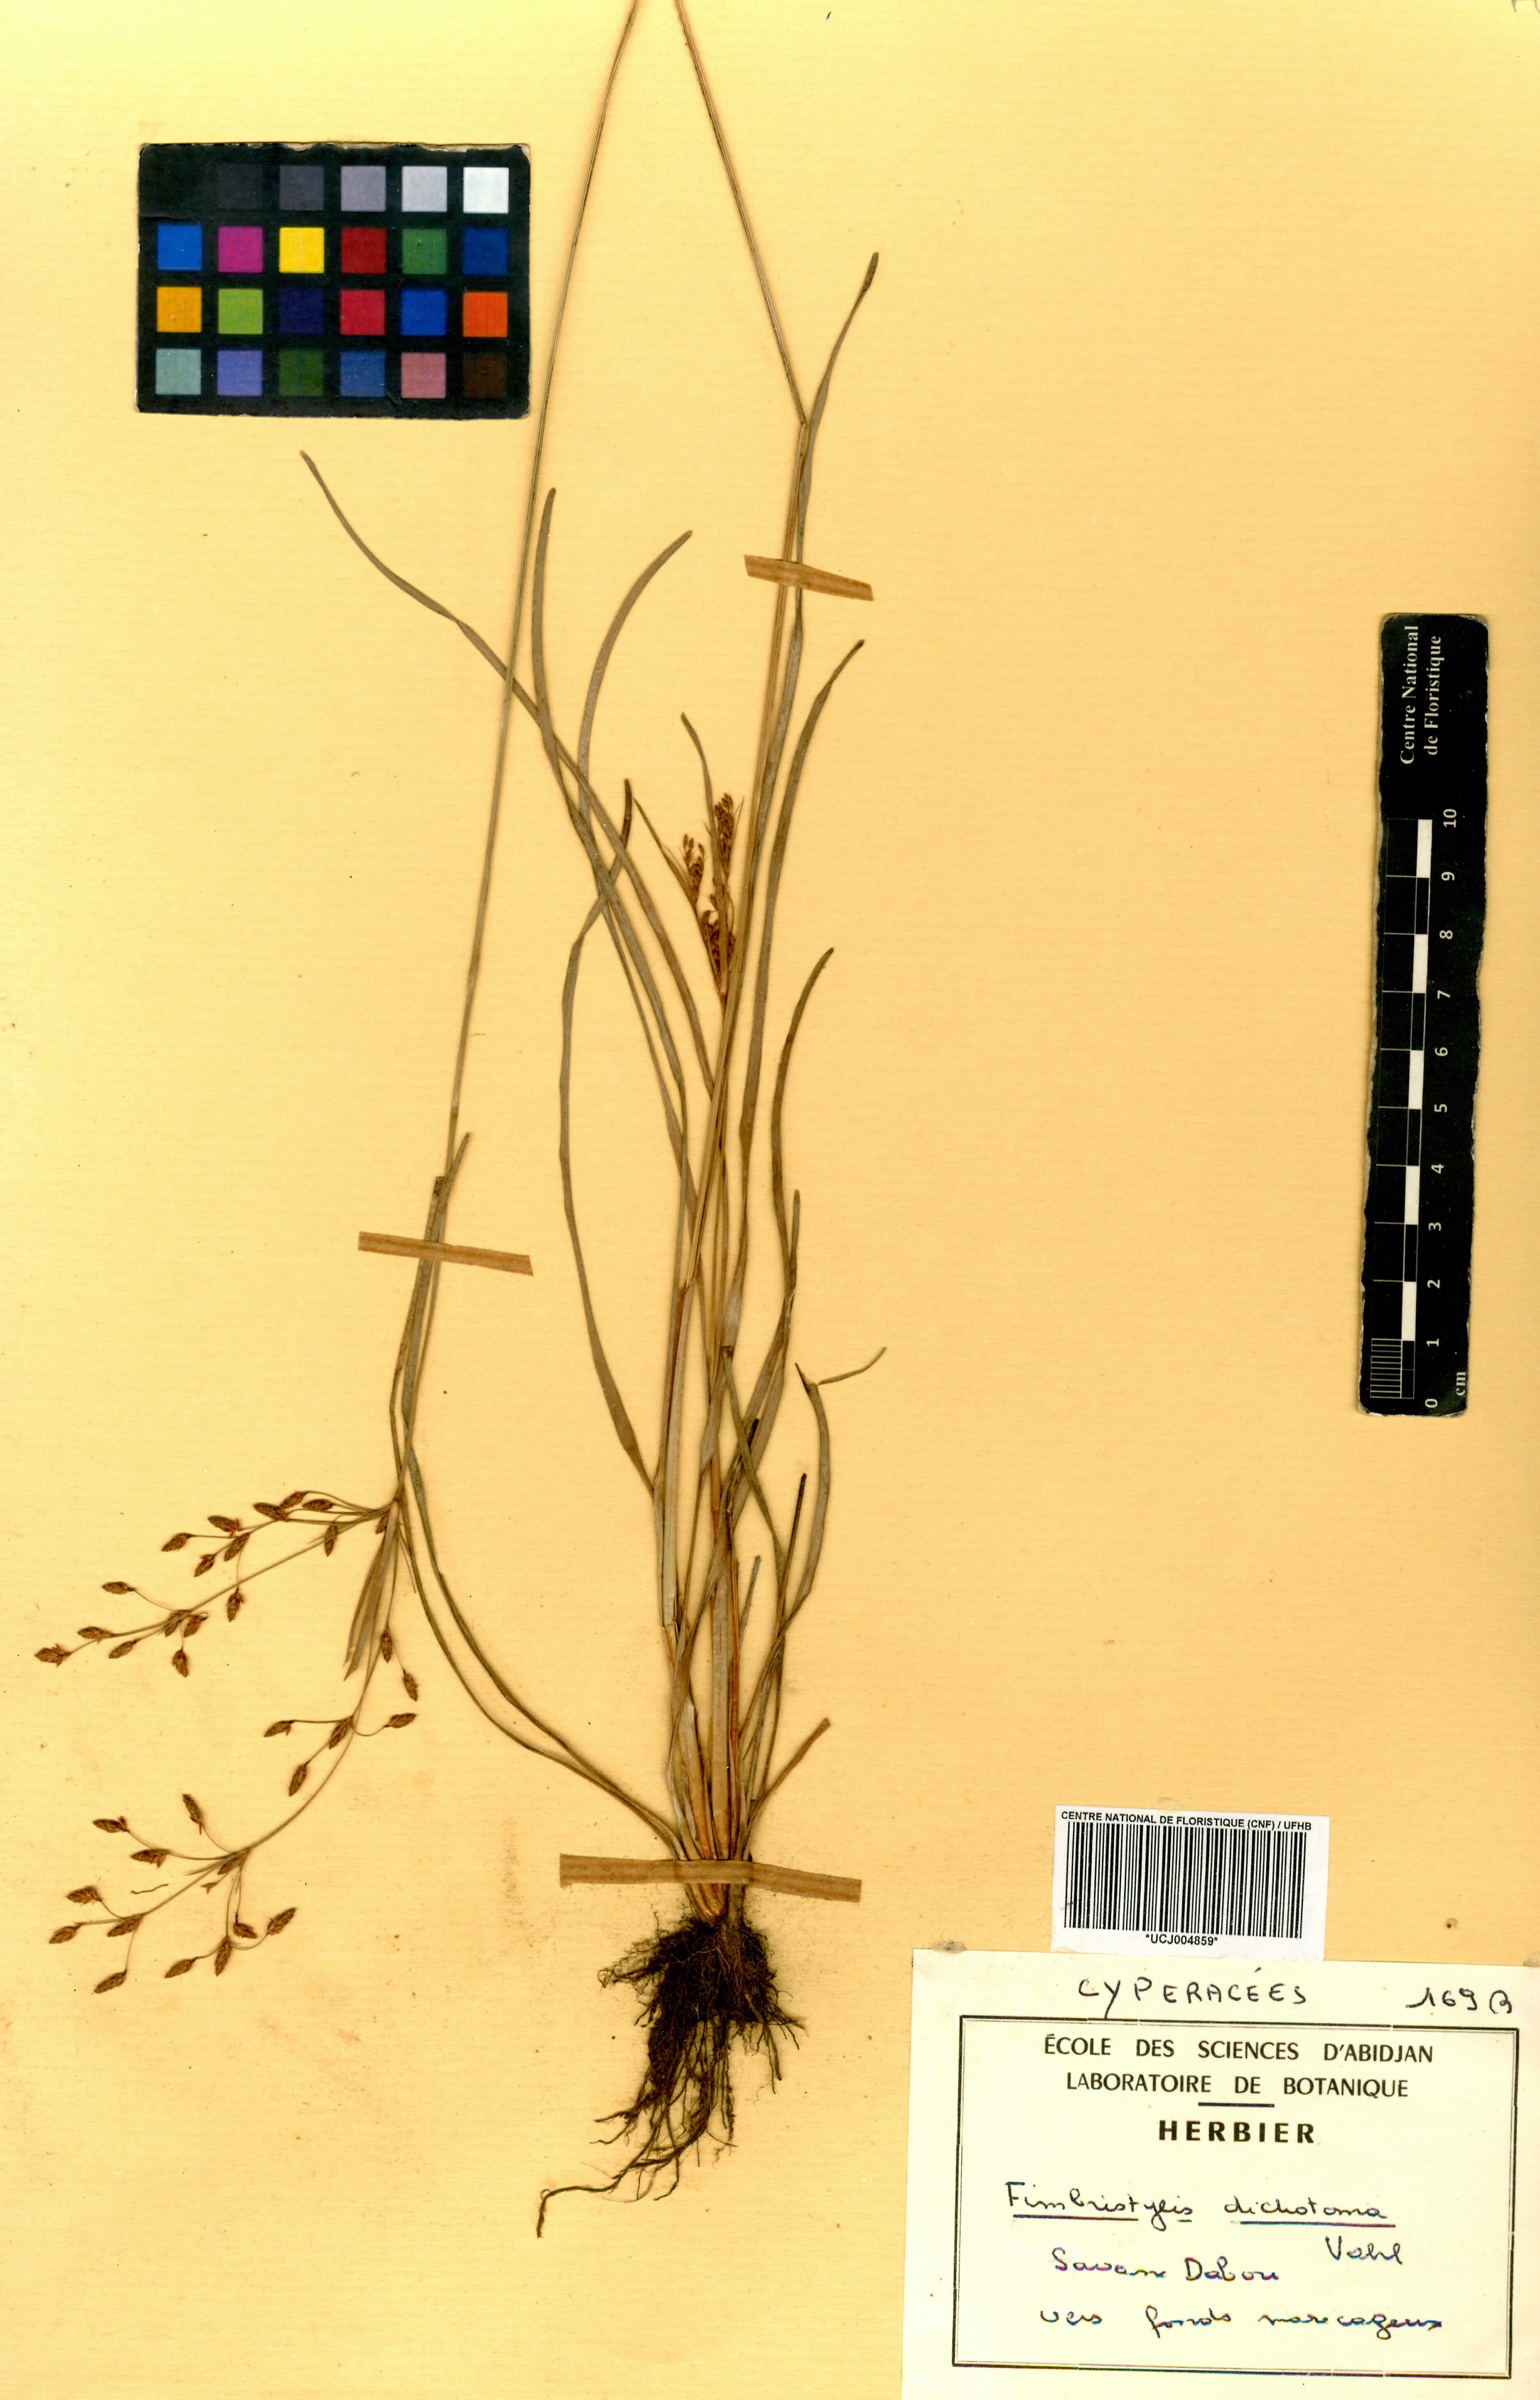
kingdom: Plantae
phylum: Tracheophyta
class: Liliopsida
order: Poales
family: Cyperaceae
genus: Fimbristylis
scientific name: Fimbristylis dichotoma
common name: Forked fimbry
